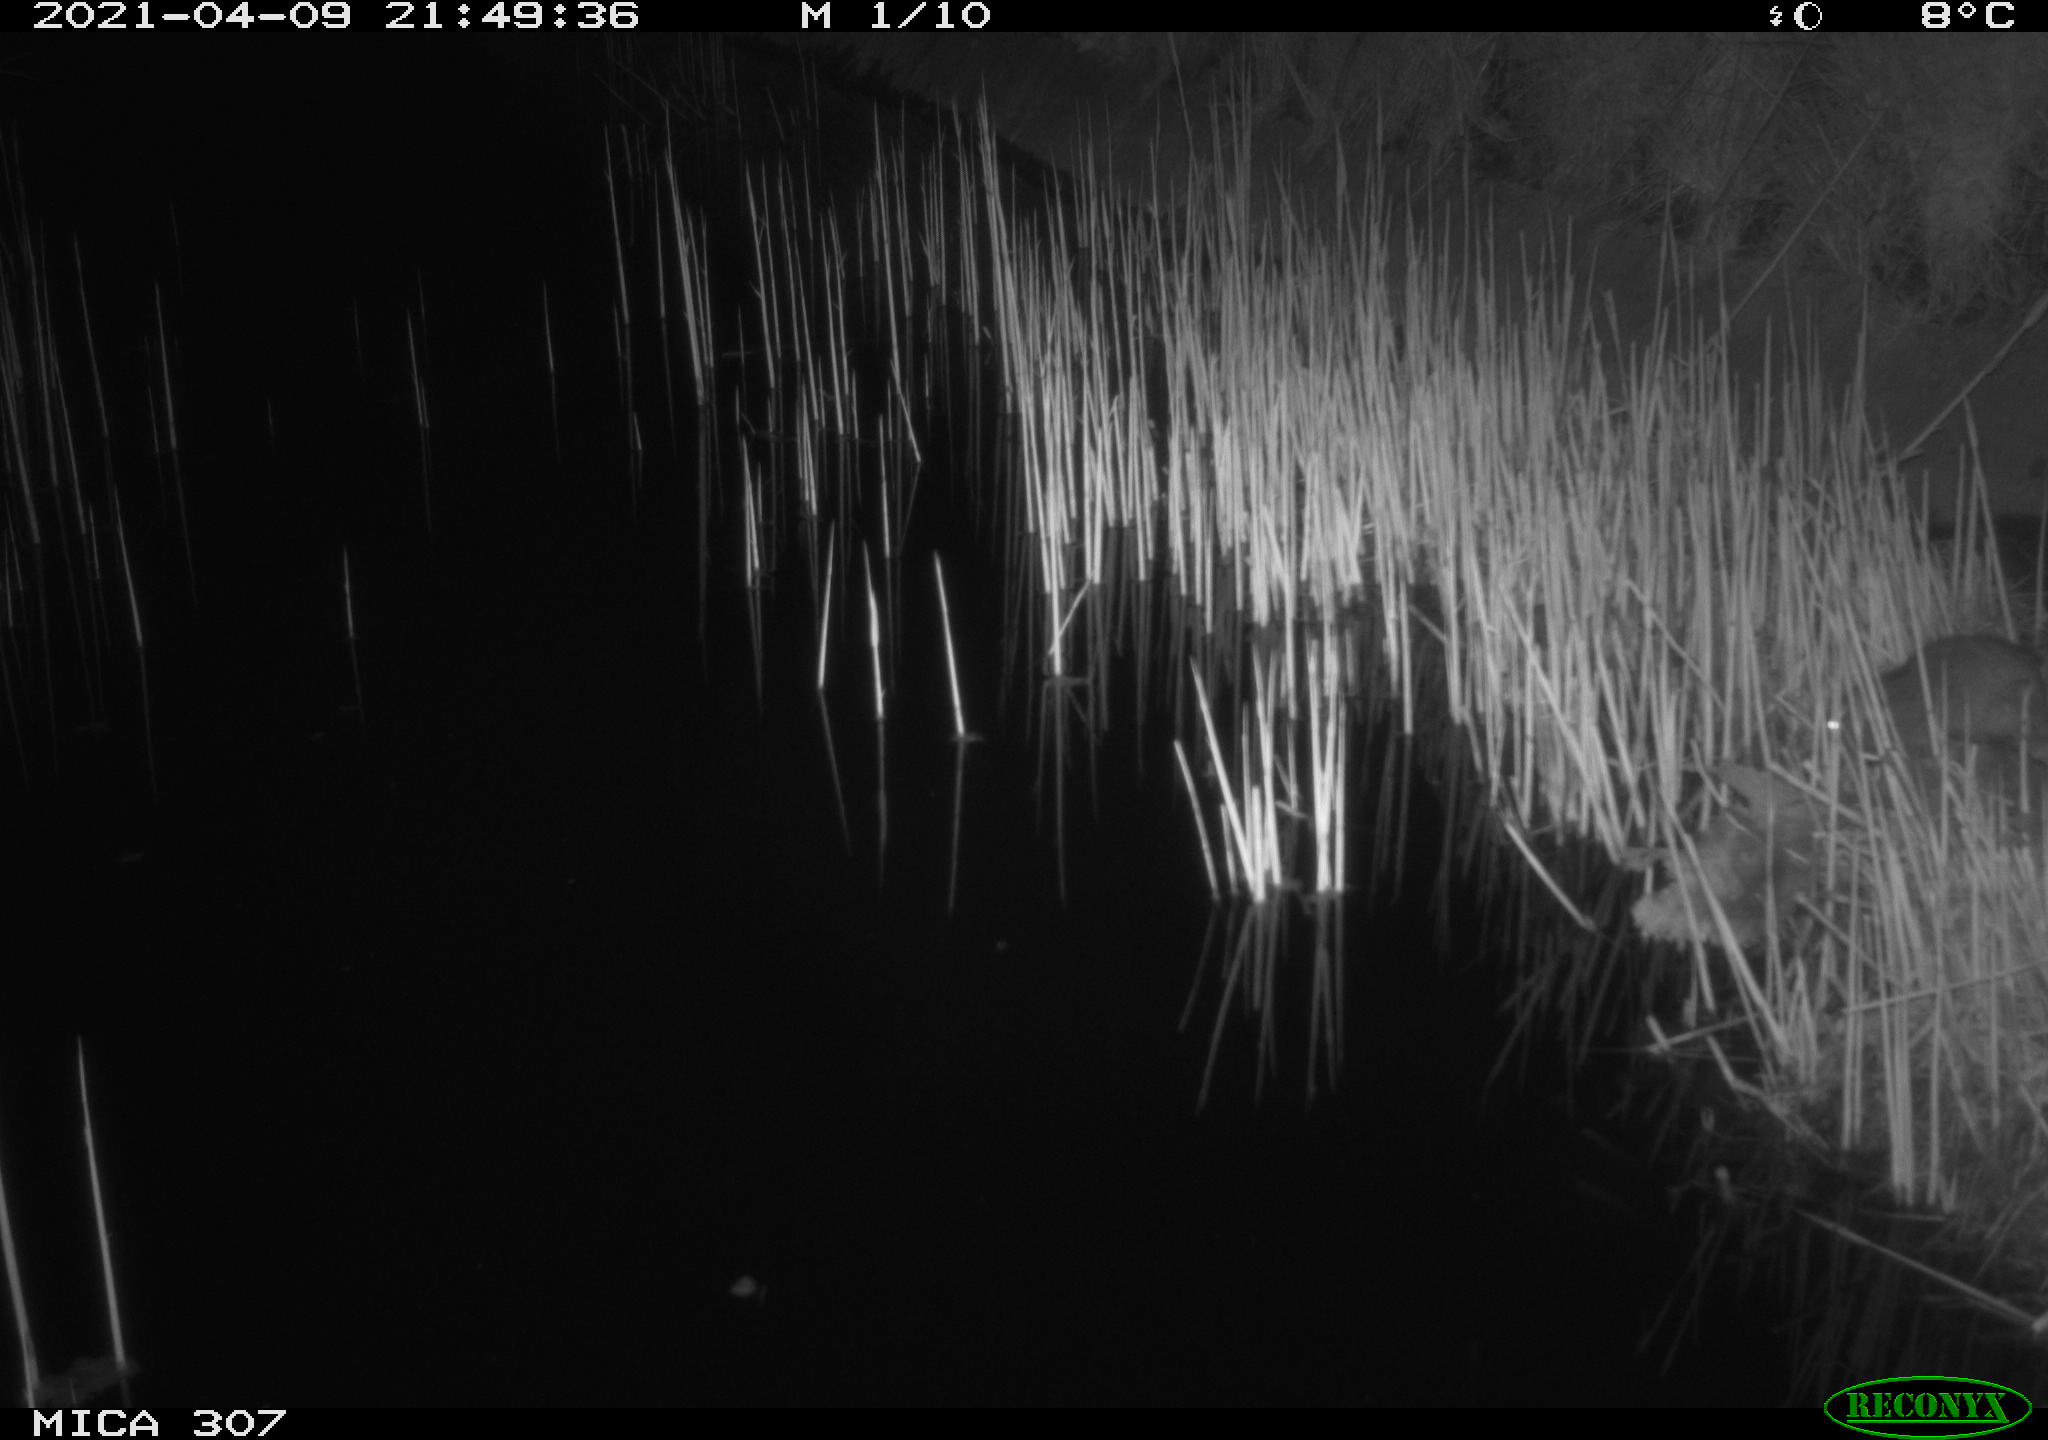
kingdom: Animalia
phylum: Chordata
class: Mammalia
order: Rodentia
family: Cricetidae
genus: Ondatra
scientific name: Ondatra zibethicus
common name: Muskrat
